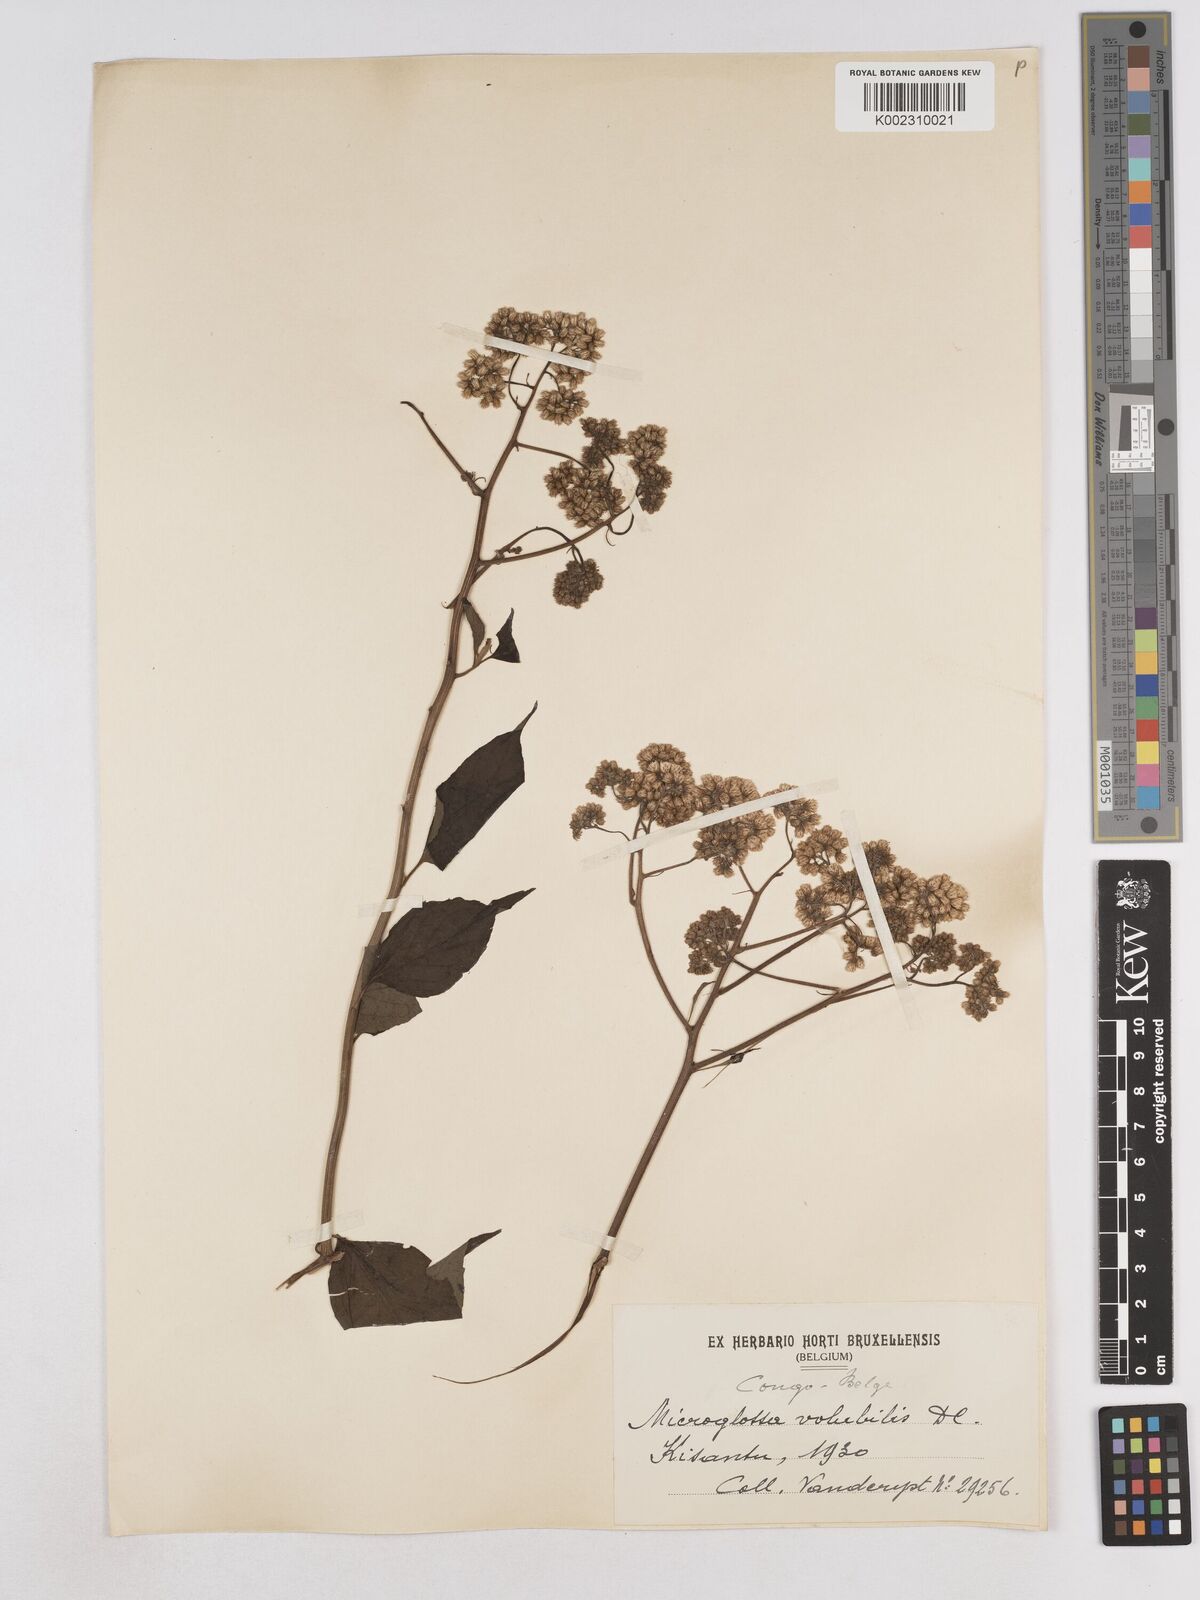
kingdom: Plantae
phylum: Tracheophyta
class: Magnoliopsida
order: Asterales
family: Asteraceae
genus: Microglossa
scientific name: Microglossa pyrifolia
